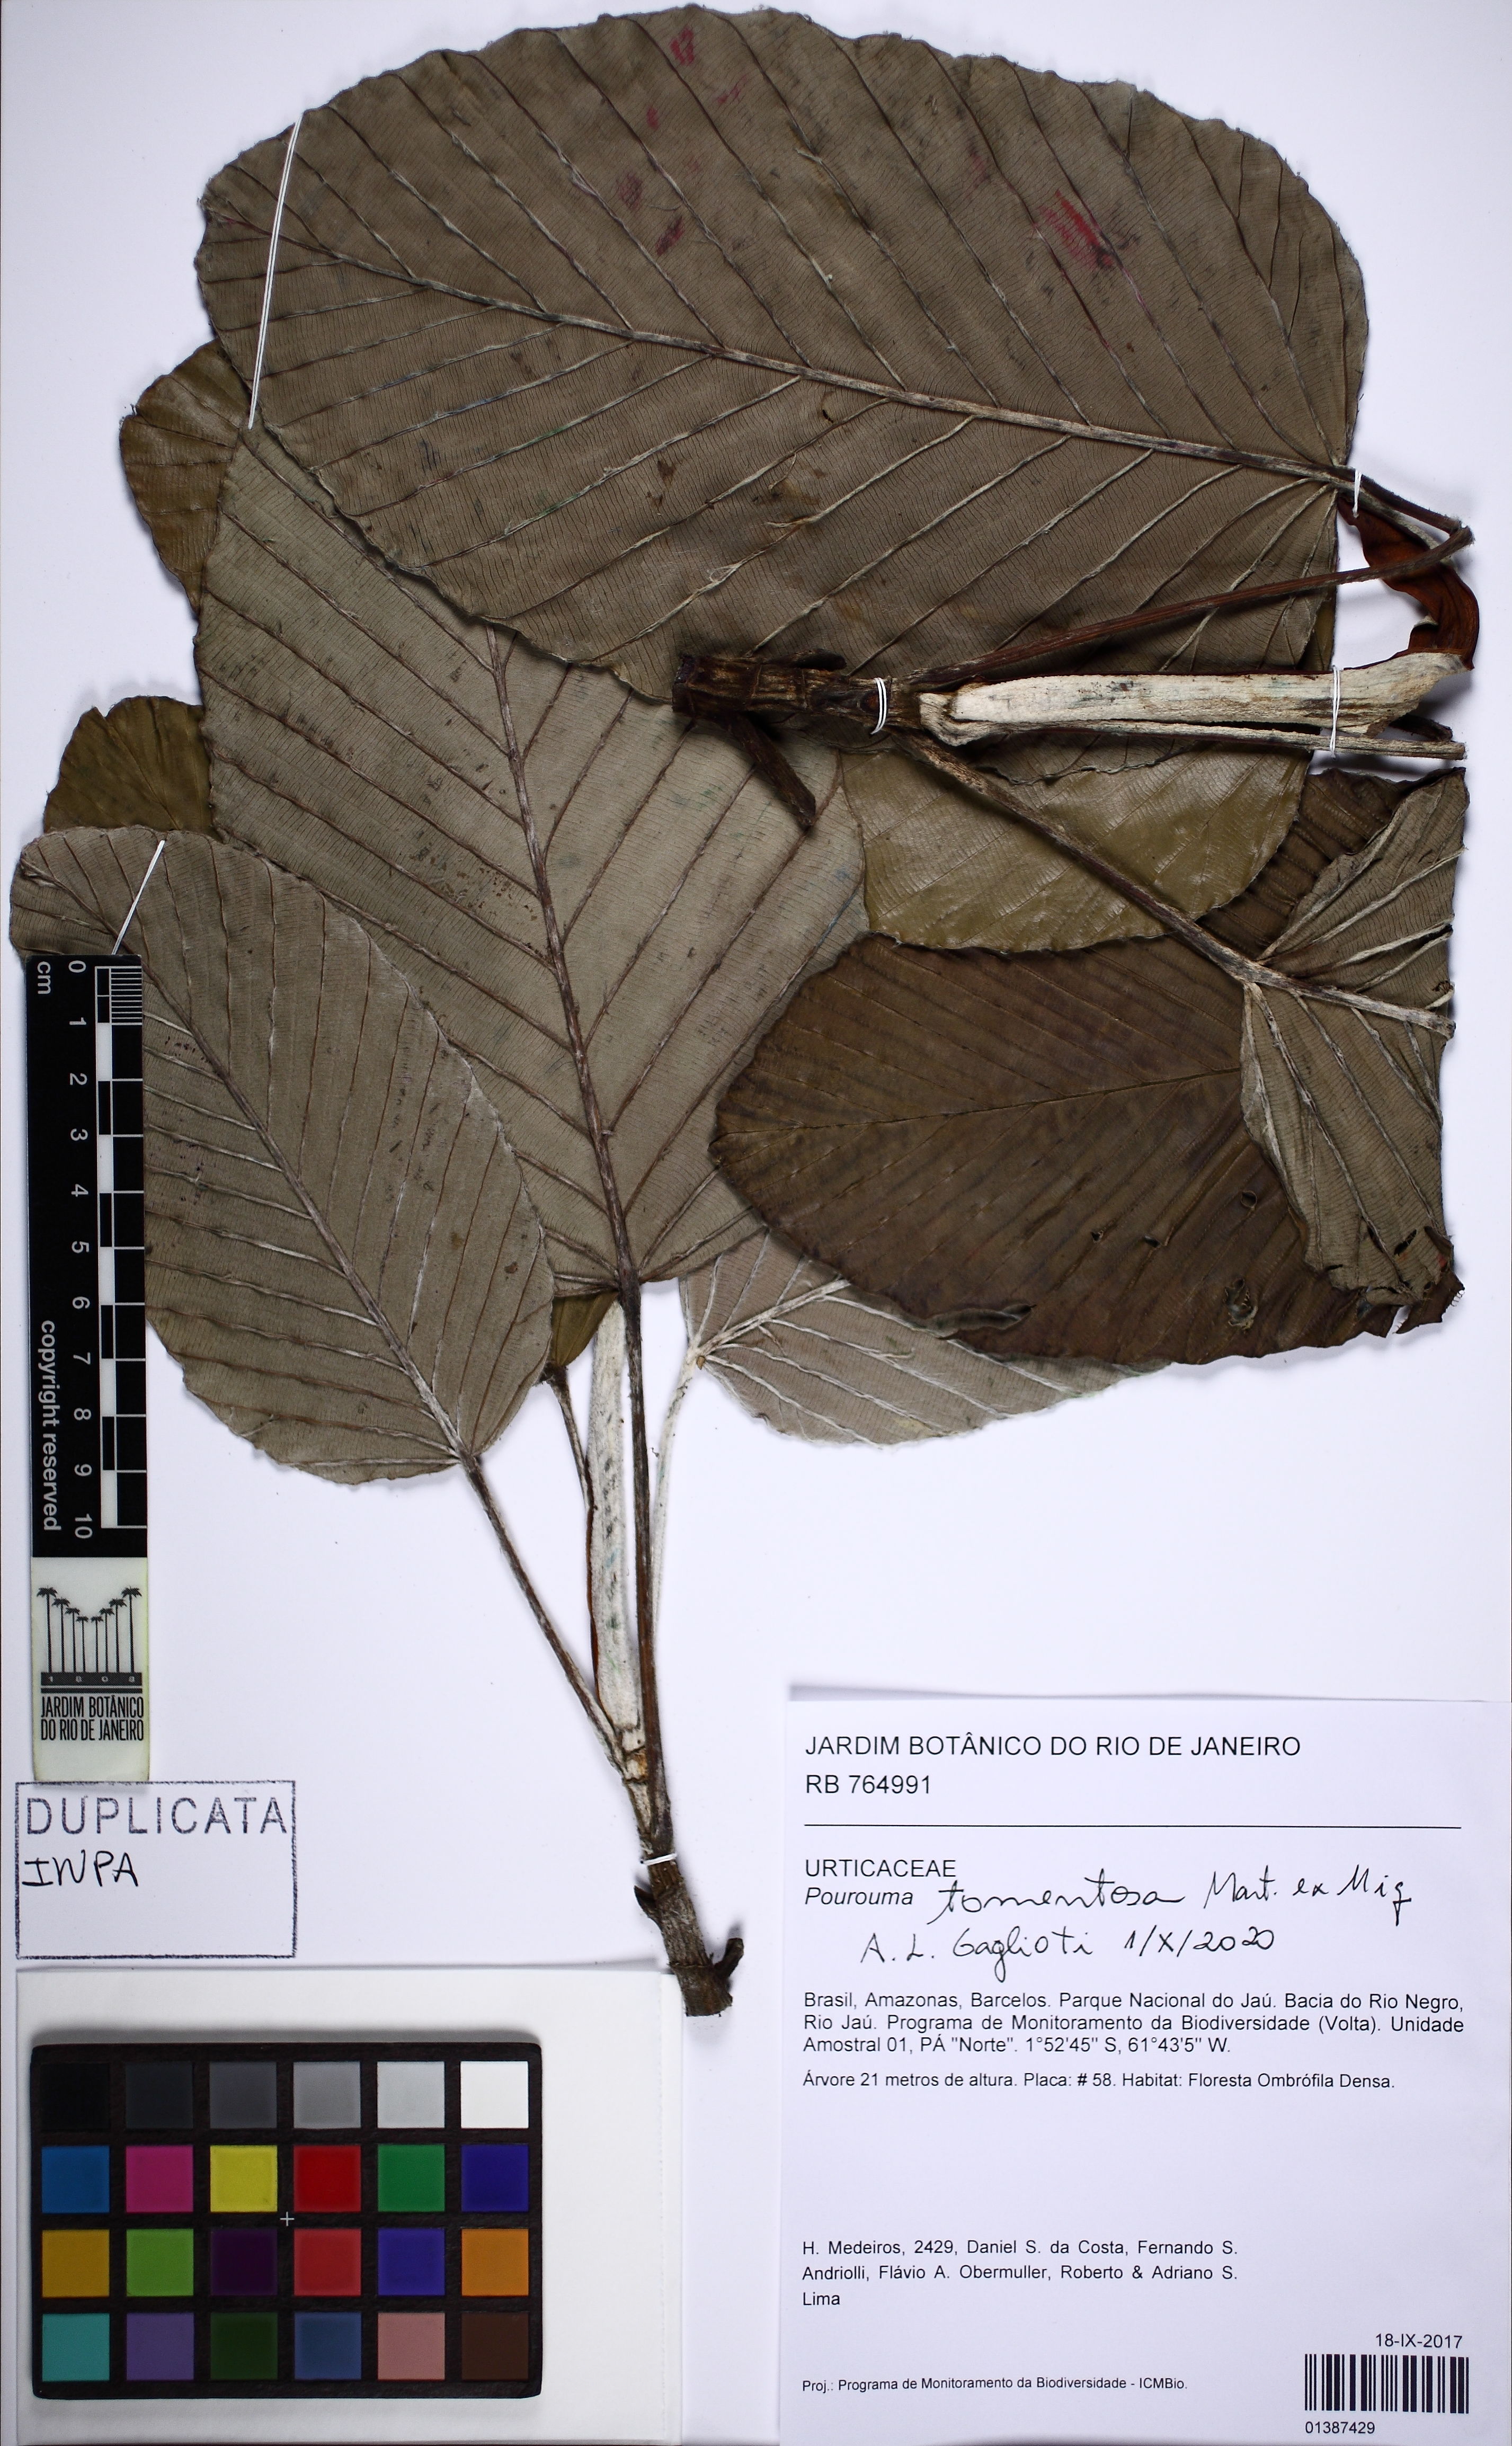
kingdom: Plantae
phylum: Tracheophyta
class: Magnoliopsida
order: Rosales
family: Urticaceae
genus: Pourouma
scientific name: Pourouma tomentosa
